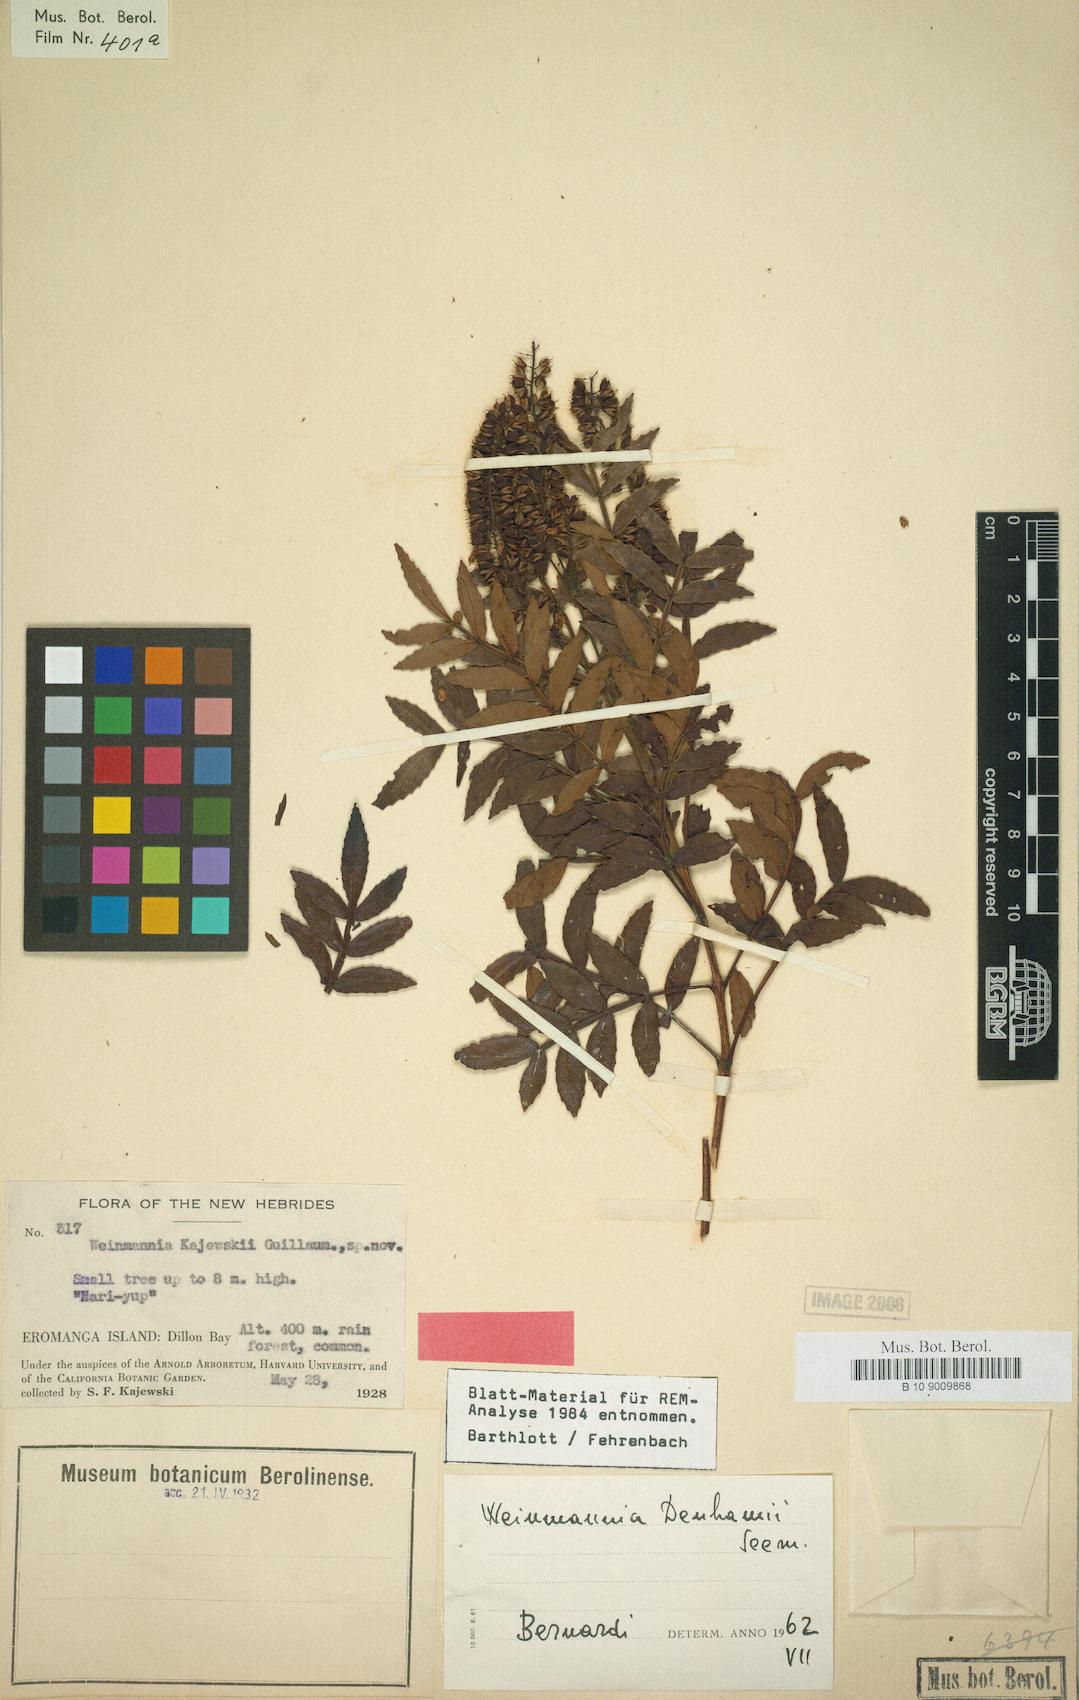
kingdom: Plantae
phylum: Tracheophyta
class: Magnoliopsida
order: Oxalidales
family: Cunoniaceae
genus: Pterophylla
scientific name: Pterophylla denhamii
